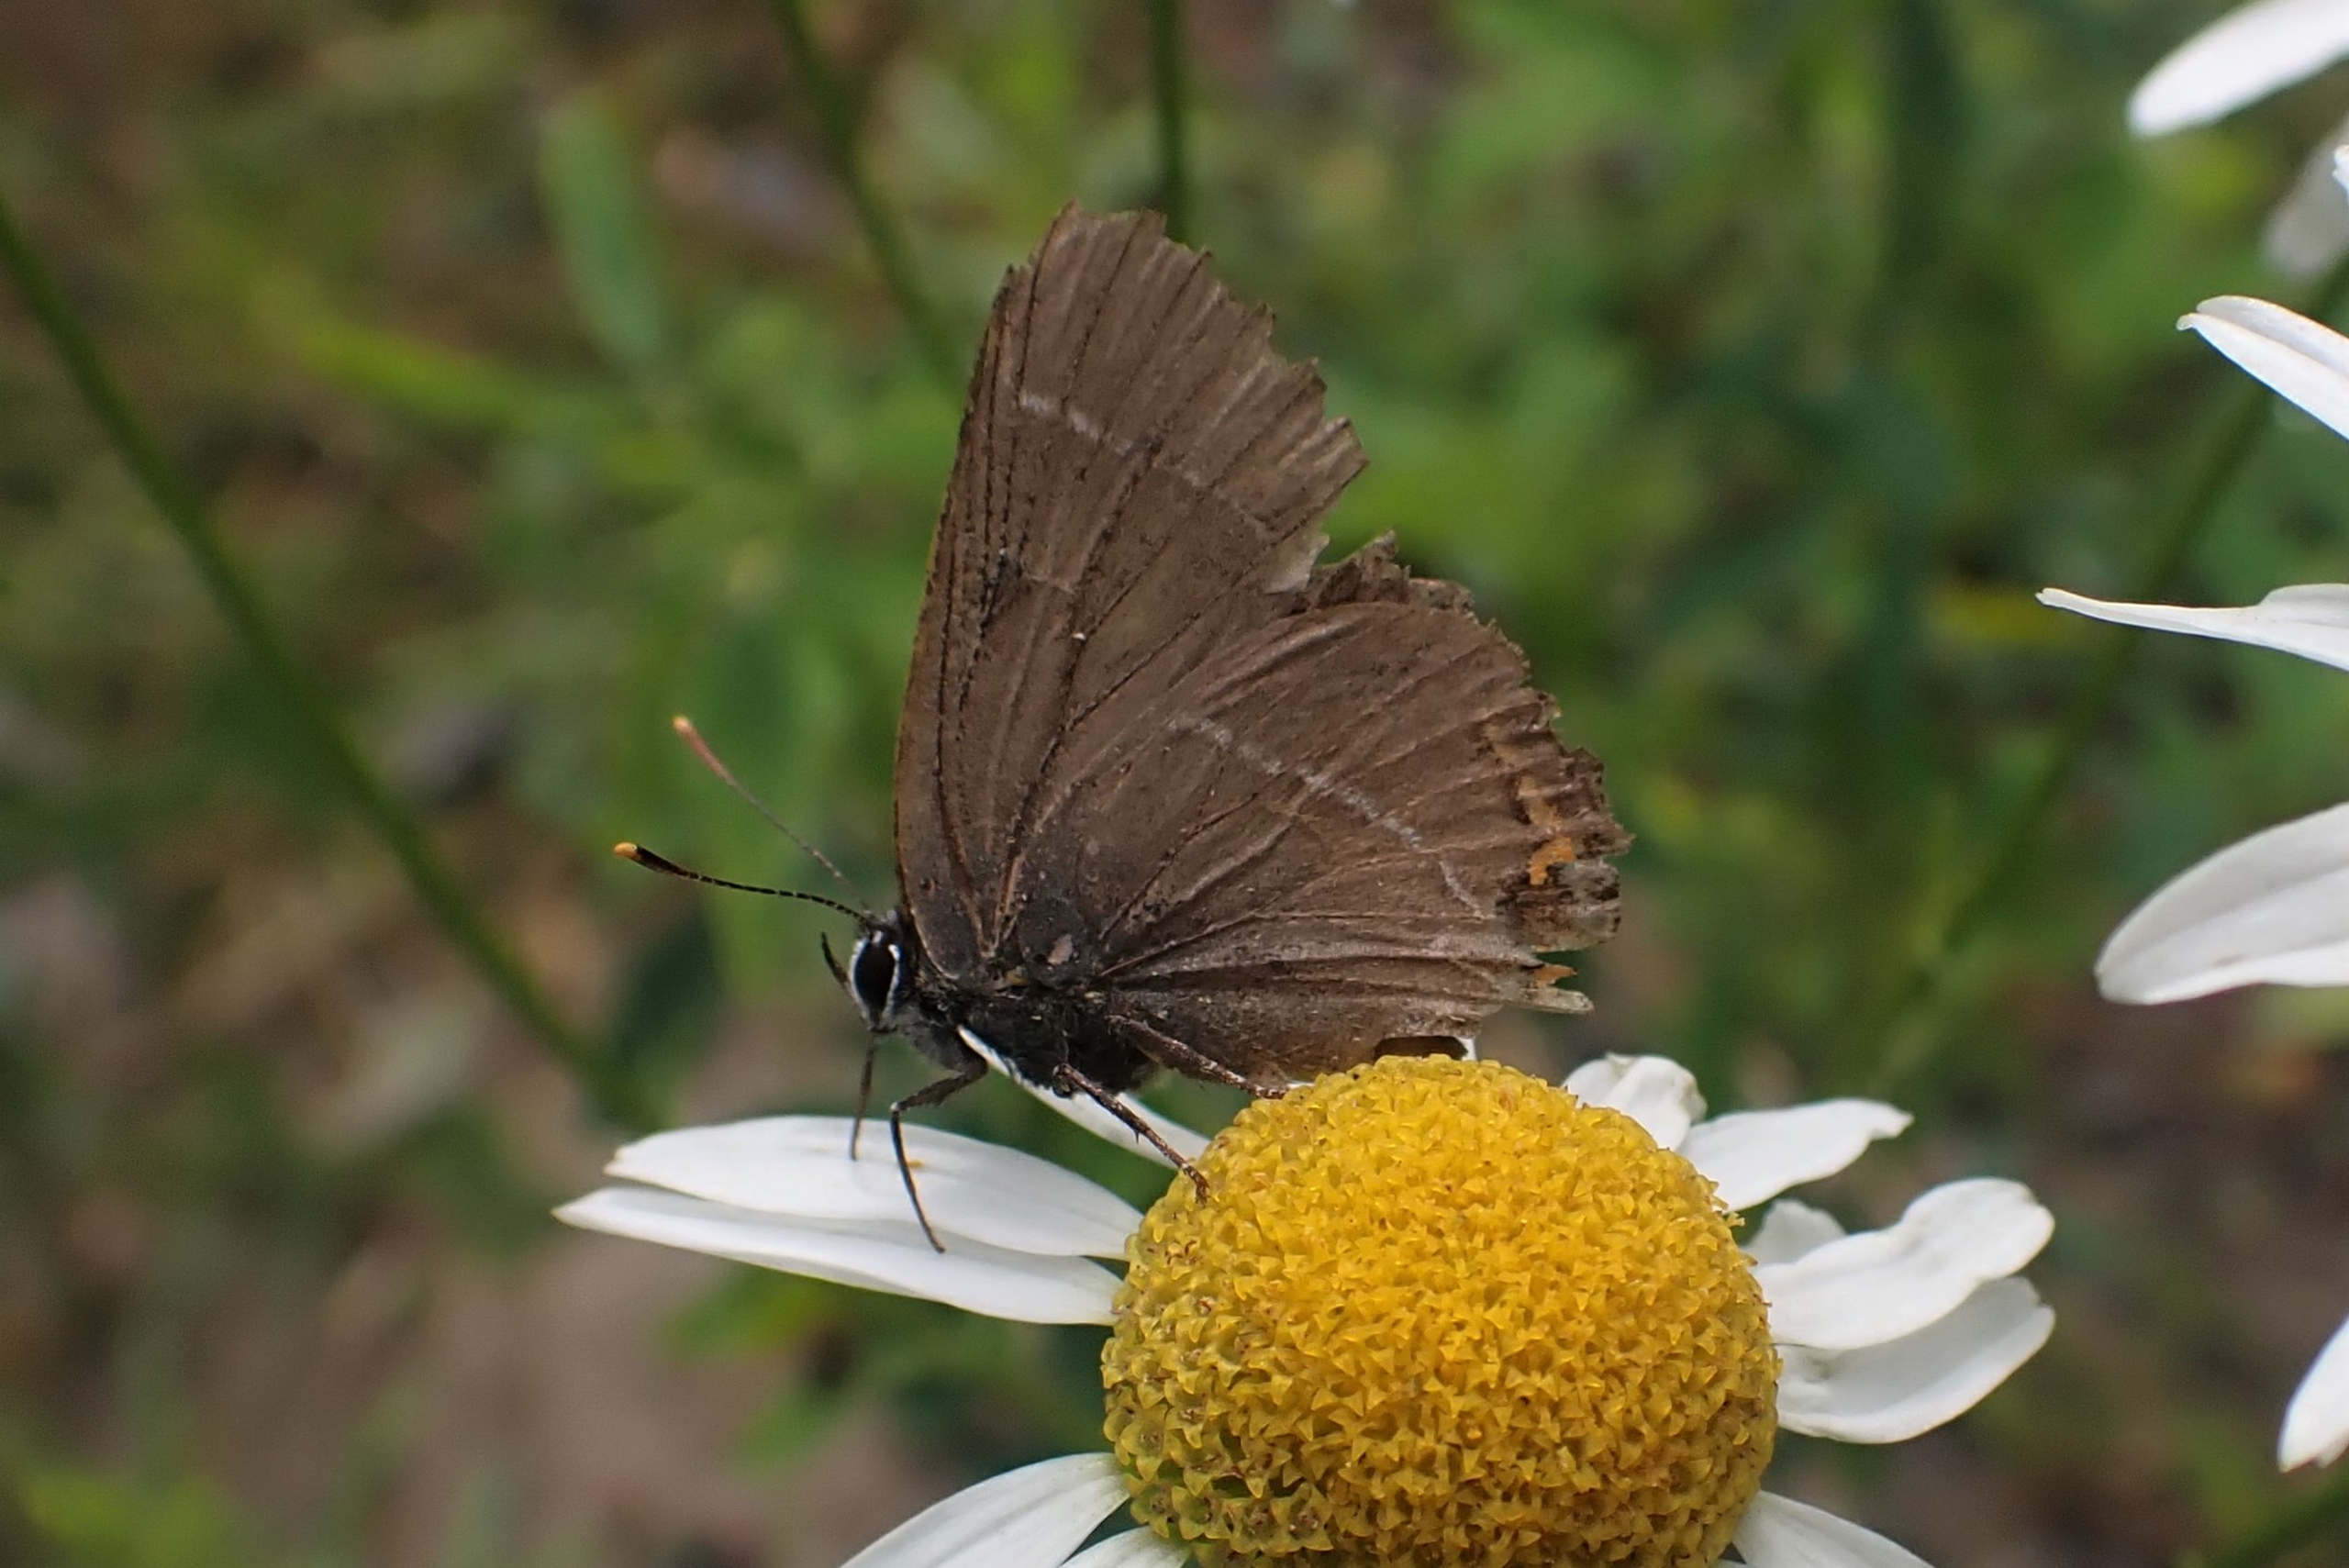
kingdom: Animalia
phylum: Arthropoda
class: Insecta
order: Lepidoptera
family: Lycaenidae
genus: Satyrium
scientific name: Satyrium w-album
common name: Det hvide W
